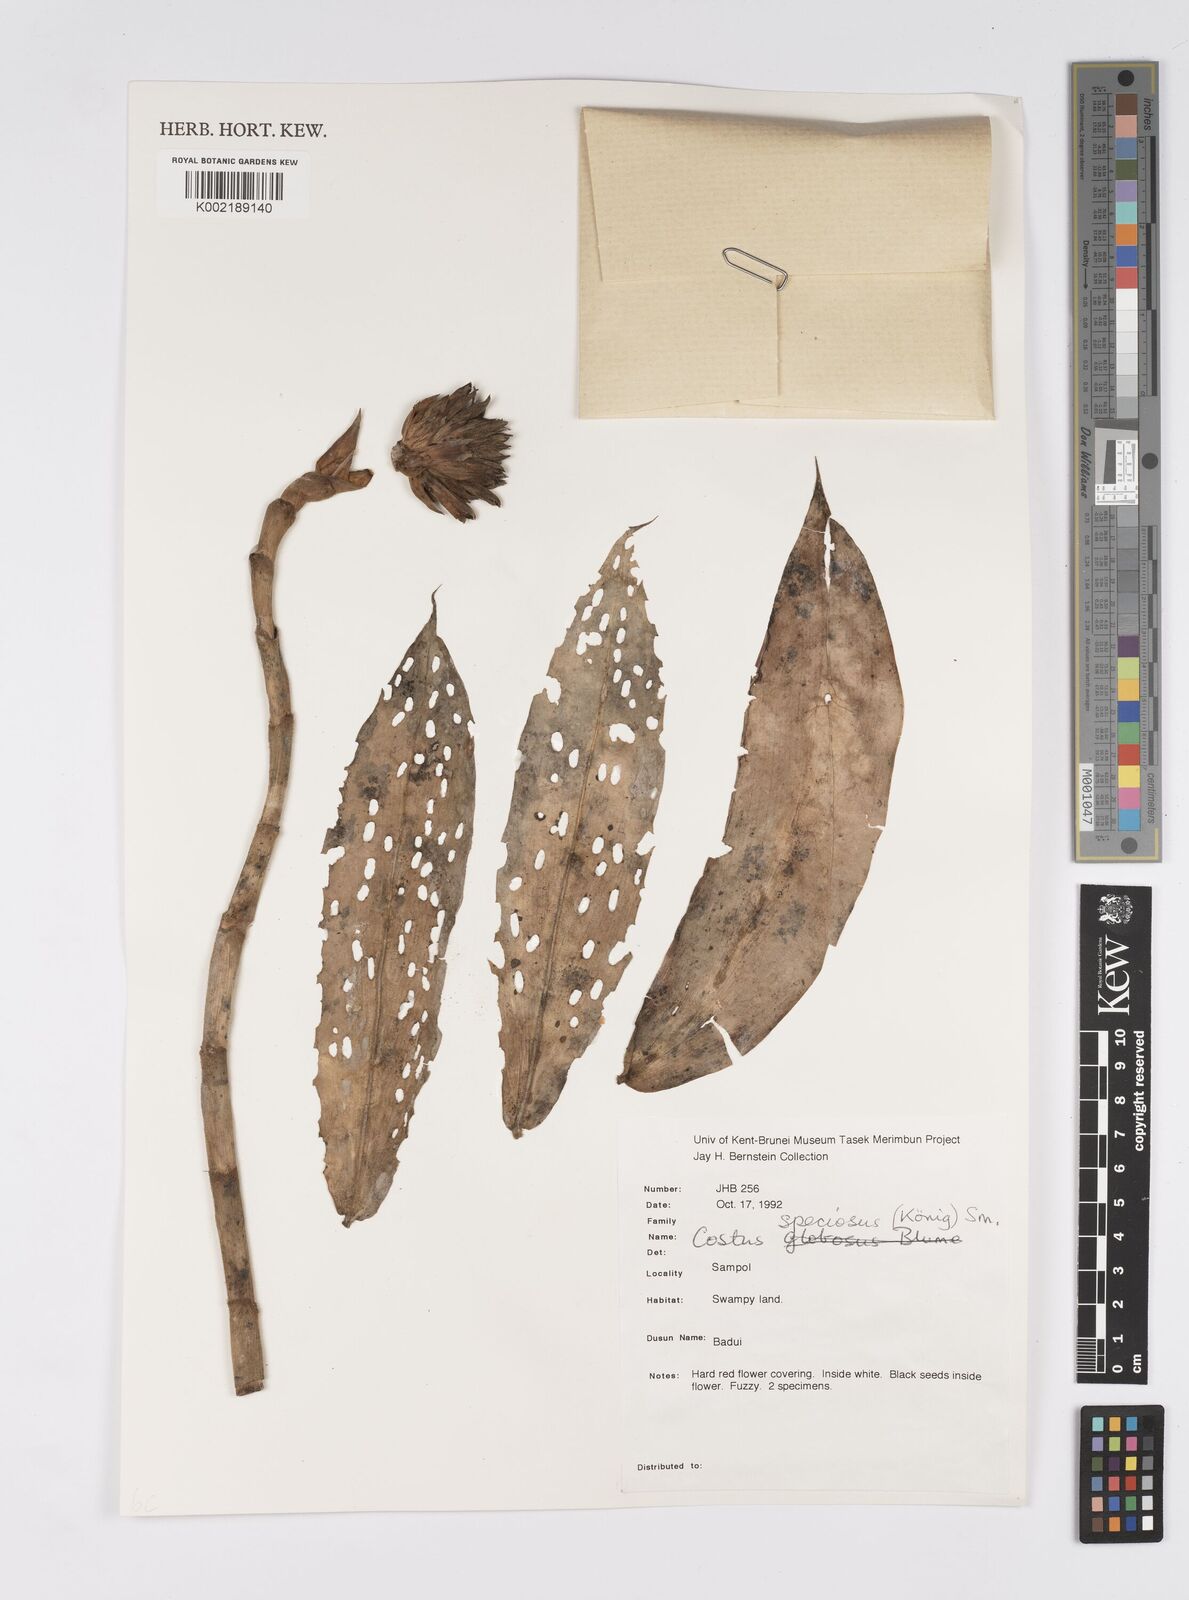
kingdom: Plantae
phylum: Tracheophyta
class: Liliopsida
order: Zingiberales
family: Costaceae
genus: Hellenia
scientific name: Hellenia speciosa
